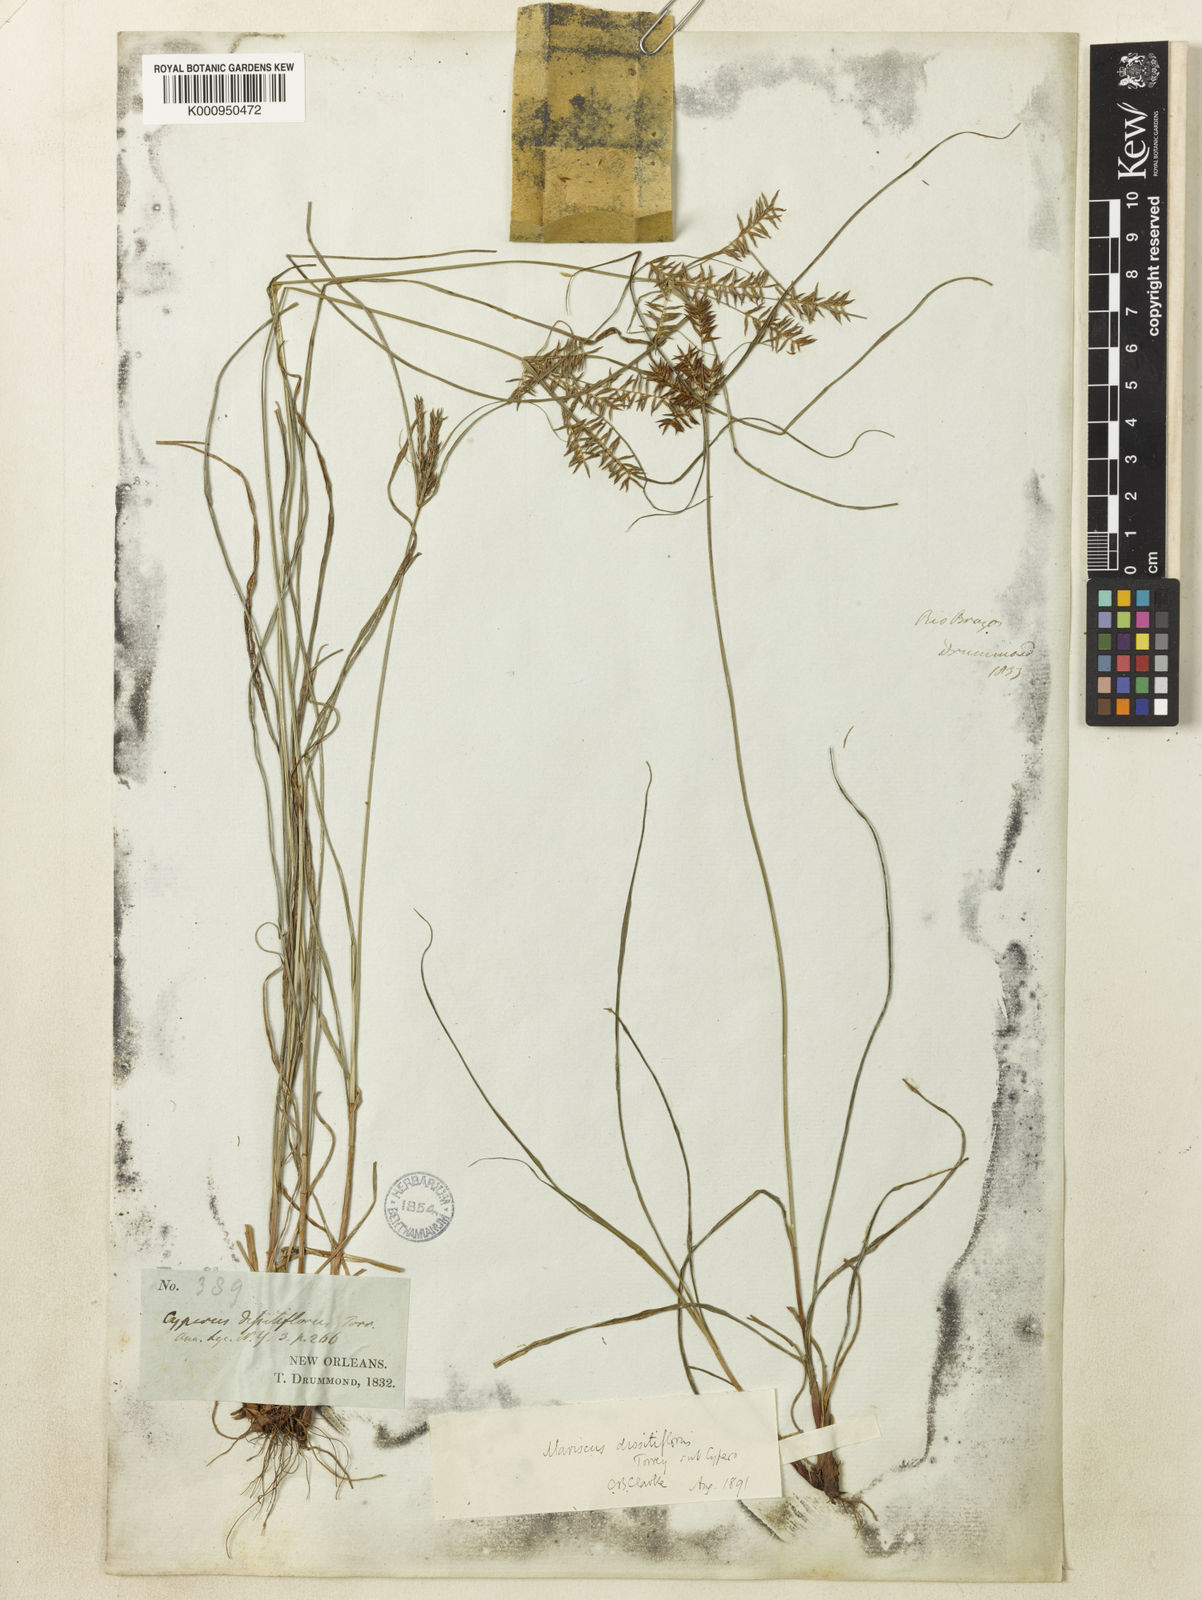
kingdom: Plantae
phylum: Tracheophyta
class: Liliopsida
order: Poales
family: Cyperaceae
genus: Cyperus
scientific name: Cyperus thyrsiflorus
